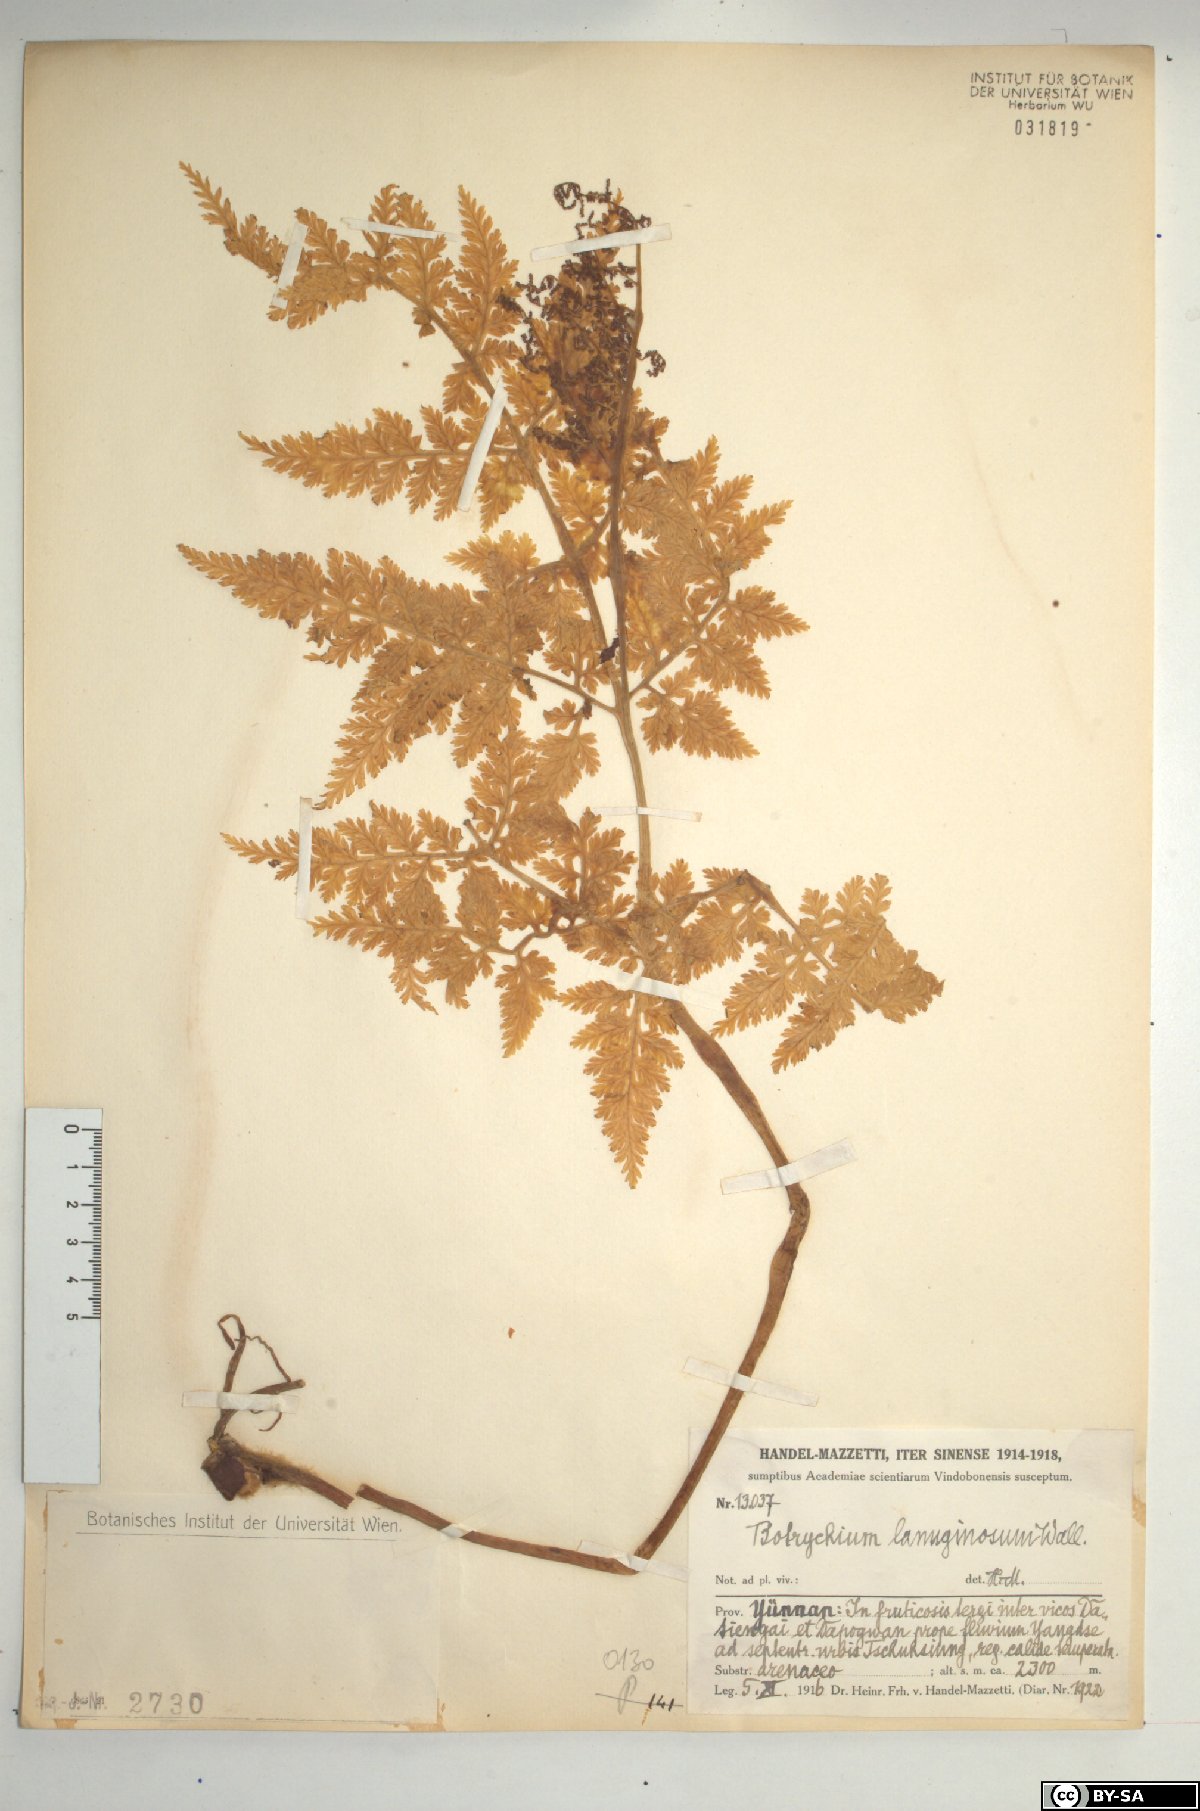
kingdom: Plantae
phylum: Tracheophyta
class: Polypodiopsida
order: Ophioglossales
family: Ophioglossaceae
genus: Japanobotrychum
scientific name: Japanobotrychum lanuginosum
